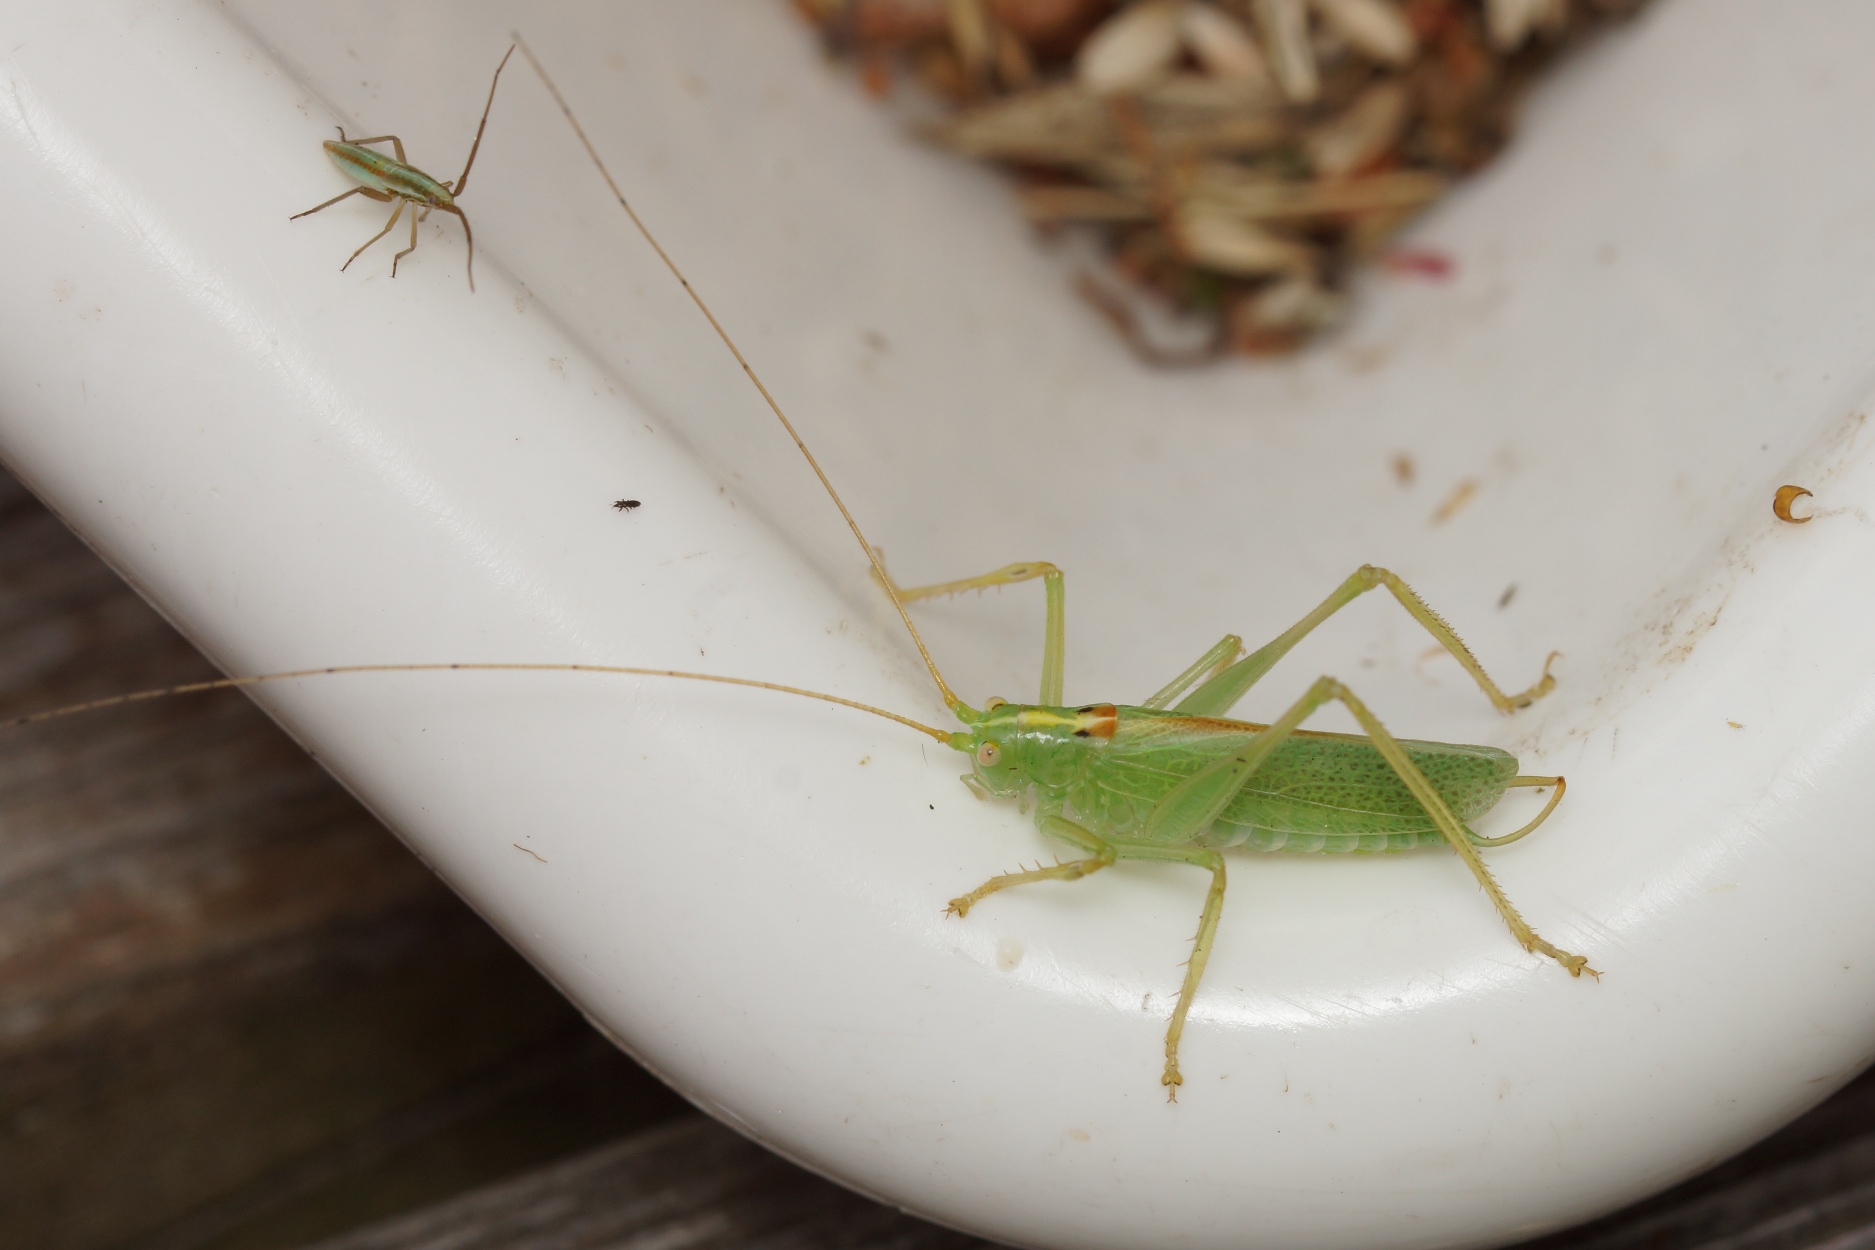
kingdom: Animalia
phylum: Arthropoda
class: Insecta
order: Orthoptera
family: Tettigoniidae
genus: Meconema
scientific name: Meconema thalassinum
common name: Egegræshoppe
